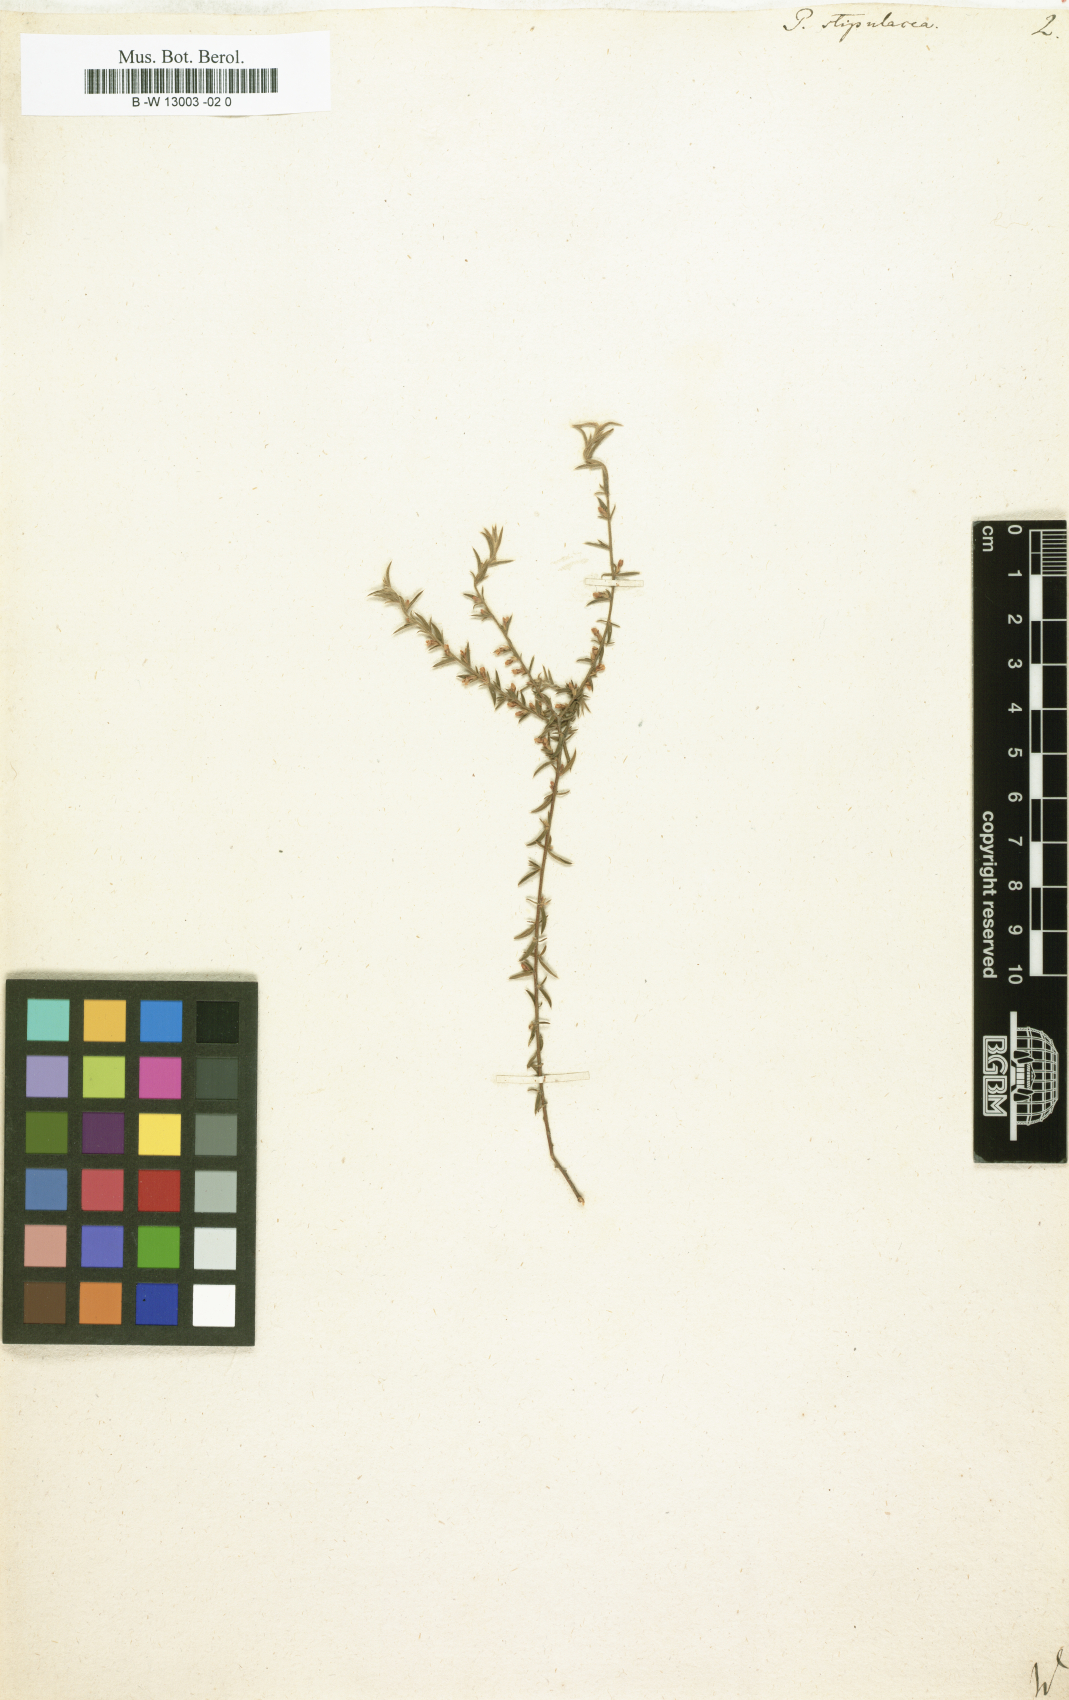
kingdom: Plantae
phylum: Tracheophyta
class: Magnoliopsida
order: Fabales
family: Polygalaceae
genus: Muraltia
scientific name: Muraltia ericoides
